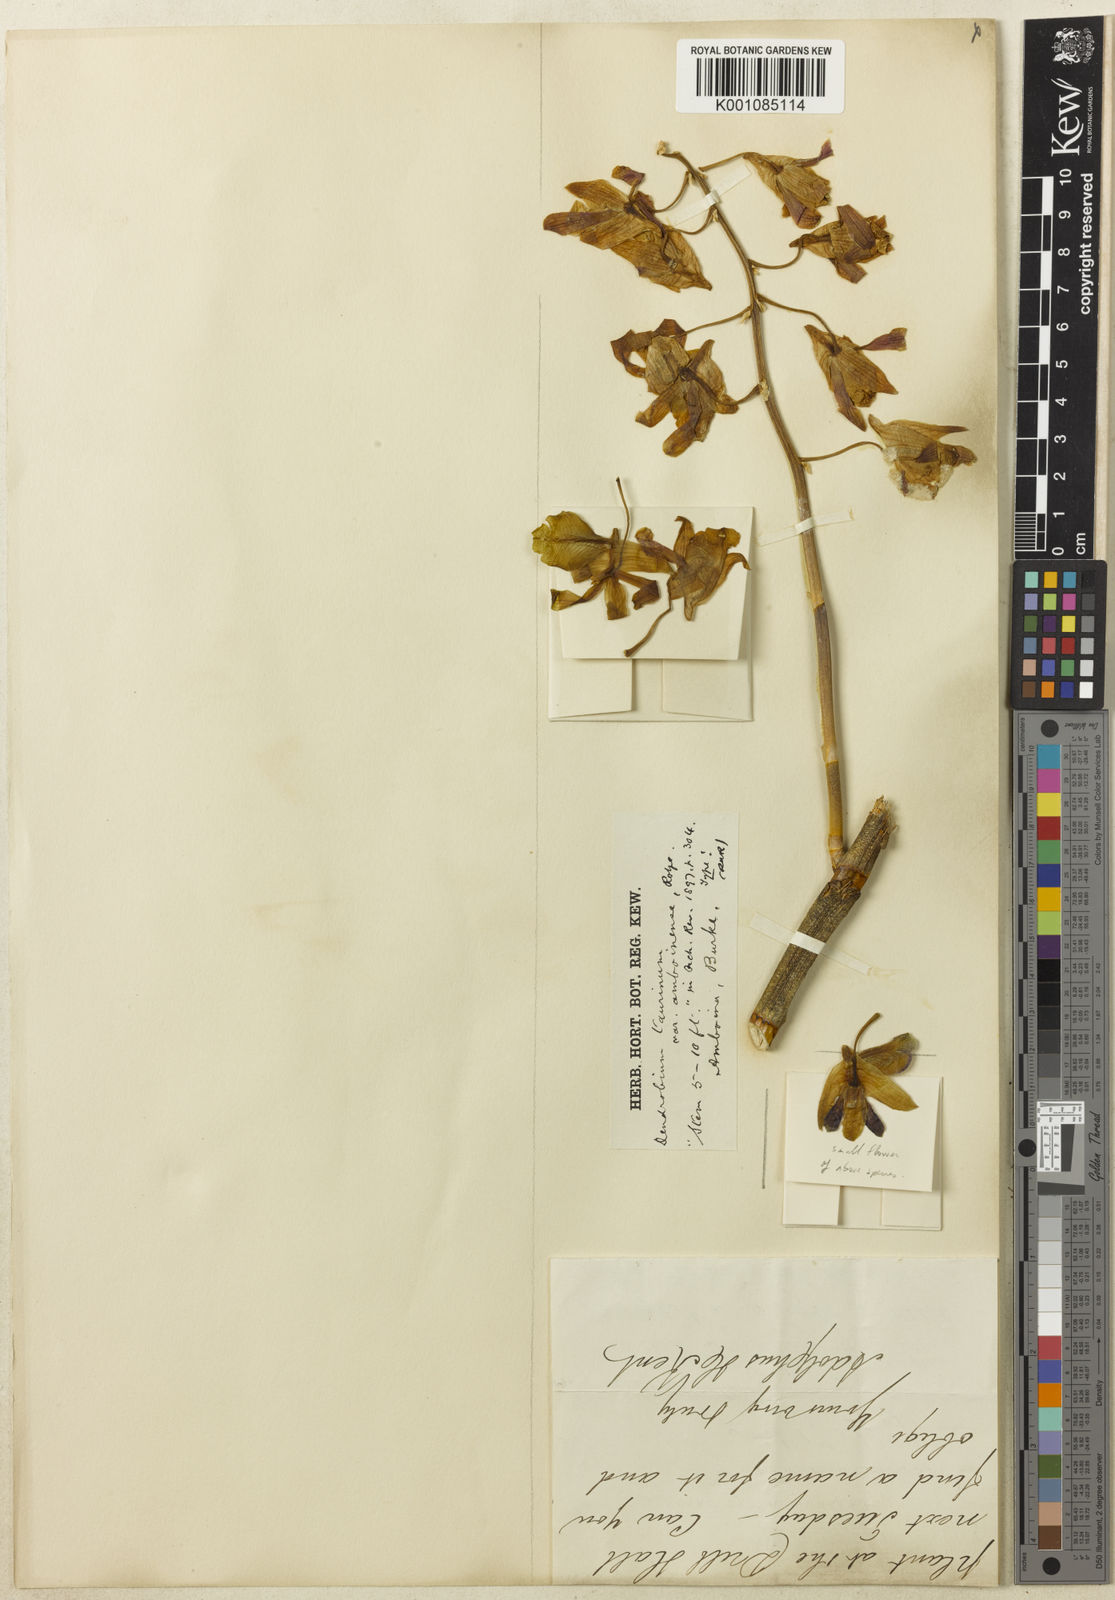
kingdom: Plantae
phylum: Tracheophyta
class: Liliopsida
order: Asparagales
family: Orchidaceae
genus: Dendrobium
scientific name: Dendrobium taurinum
